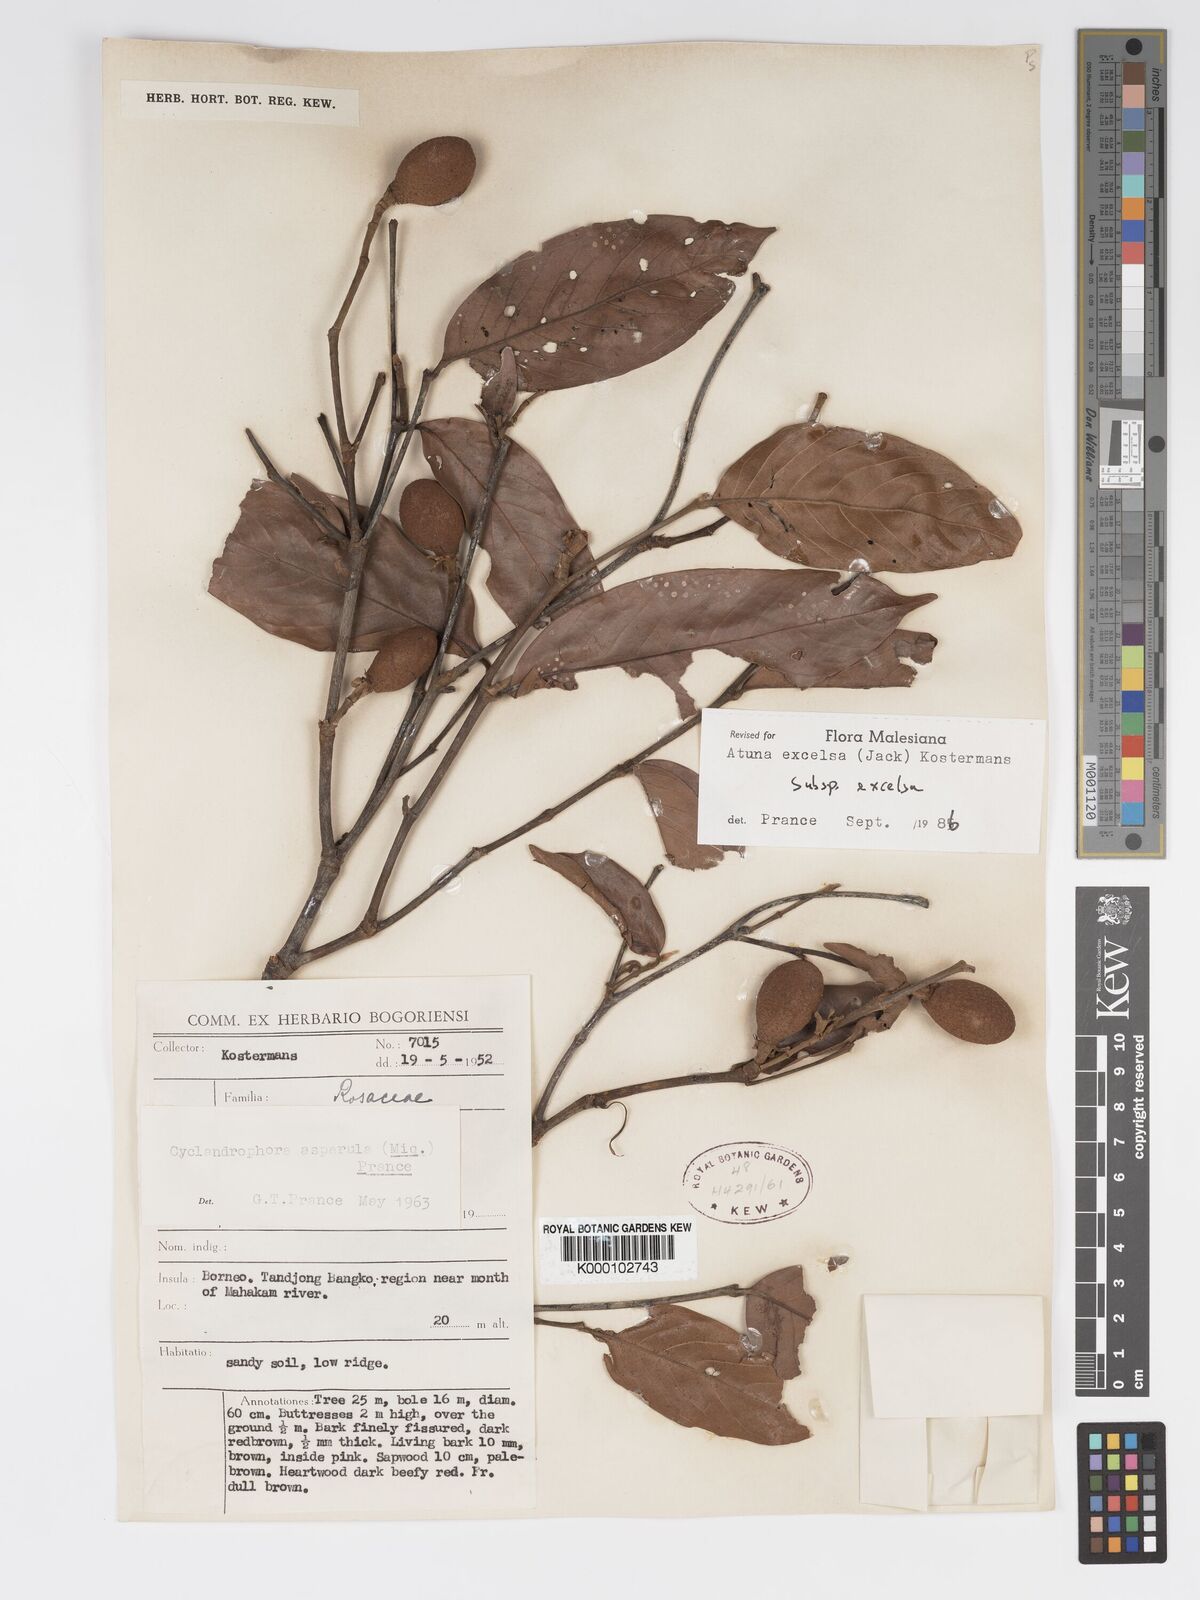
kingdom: Plantae
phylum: Tracheophyta
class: Magnoliopsida
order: Malpighiales
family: Chrysobalanaceae
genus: Atuna
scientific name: Atuna excelsa
